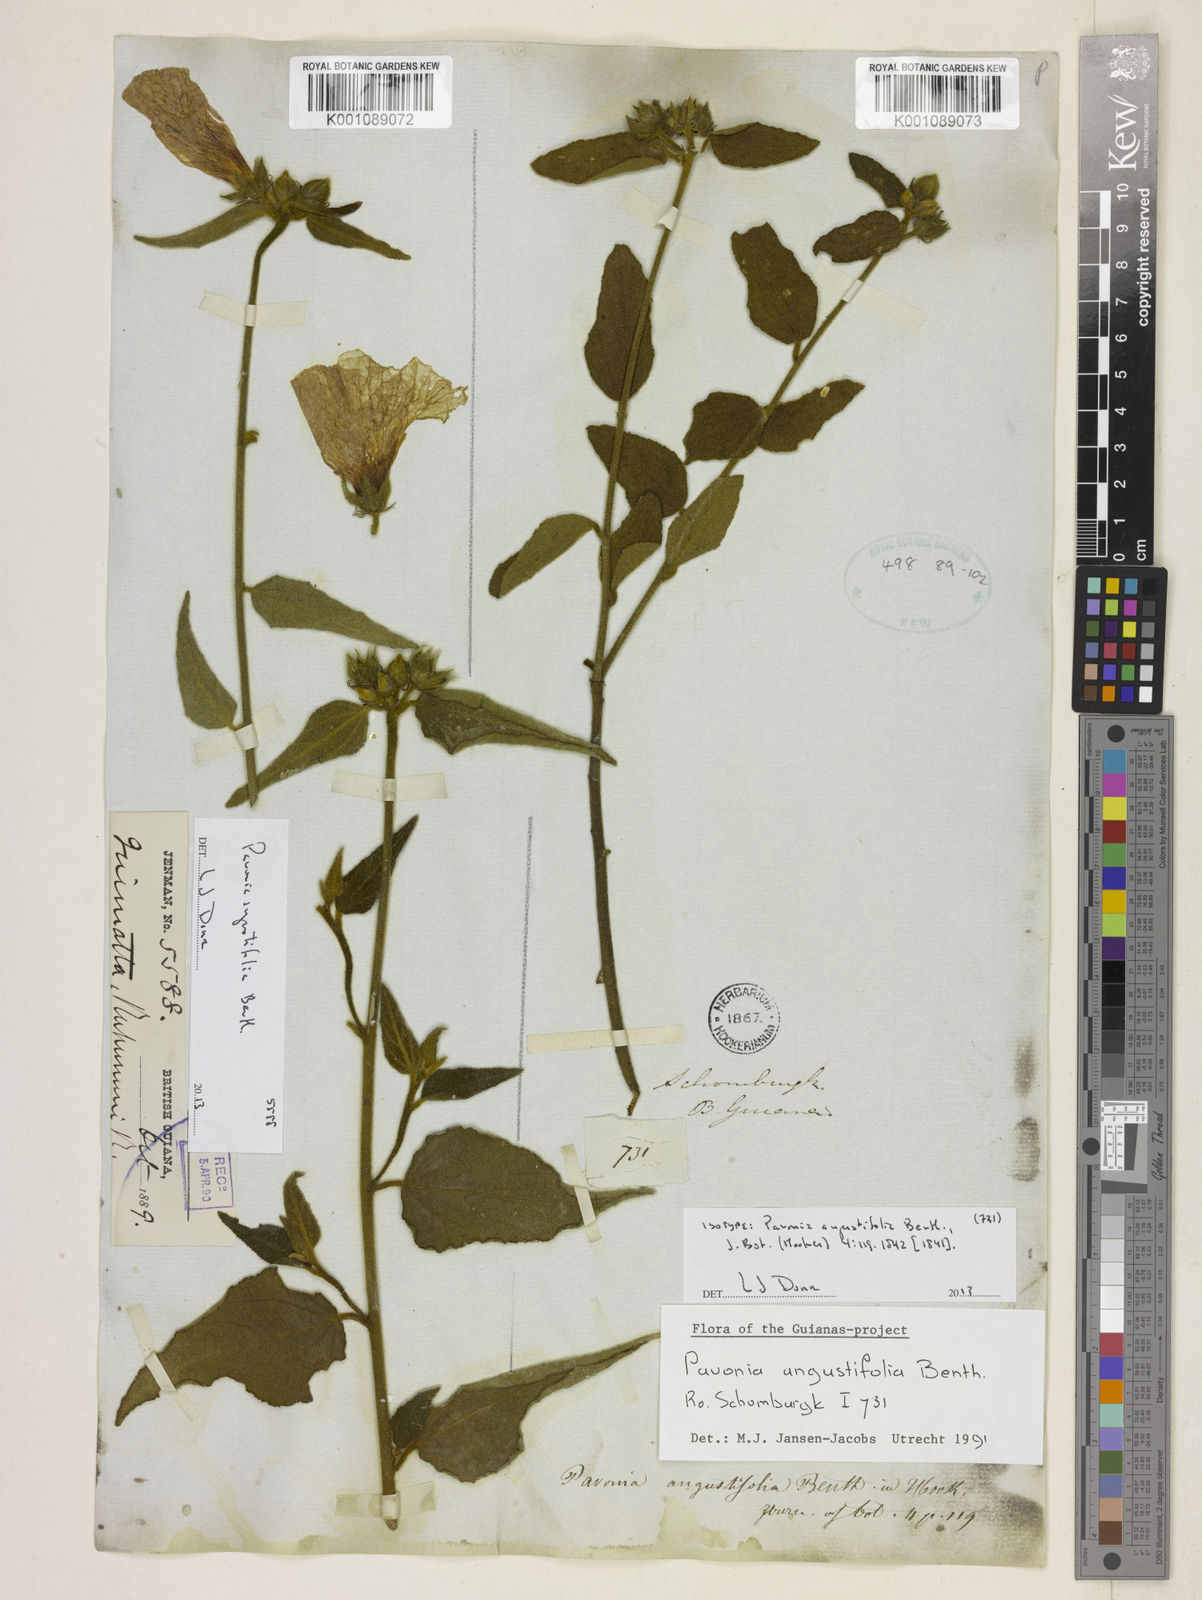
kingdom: Plantae
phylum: Tracheophyta
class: Magnoliopsida
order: Malvales
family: Malvaceae
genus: Pavonia
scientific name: Pavonia angustifolia
